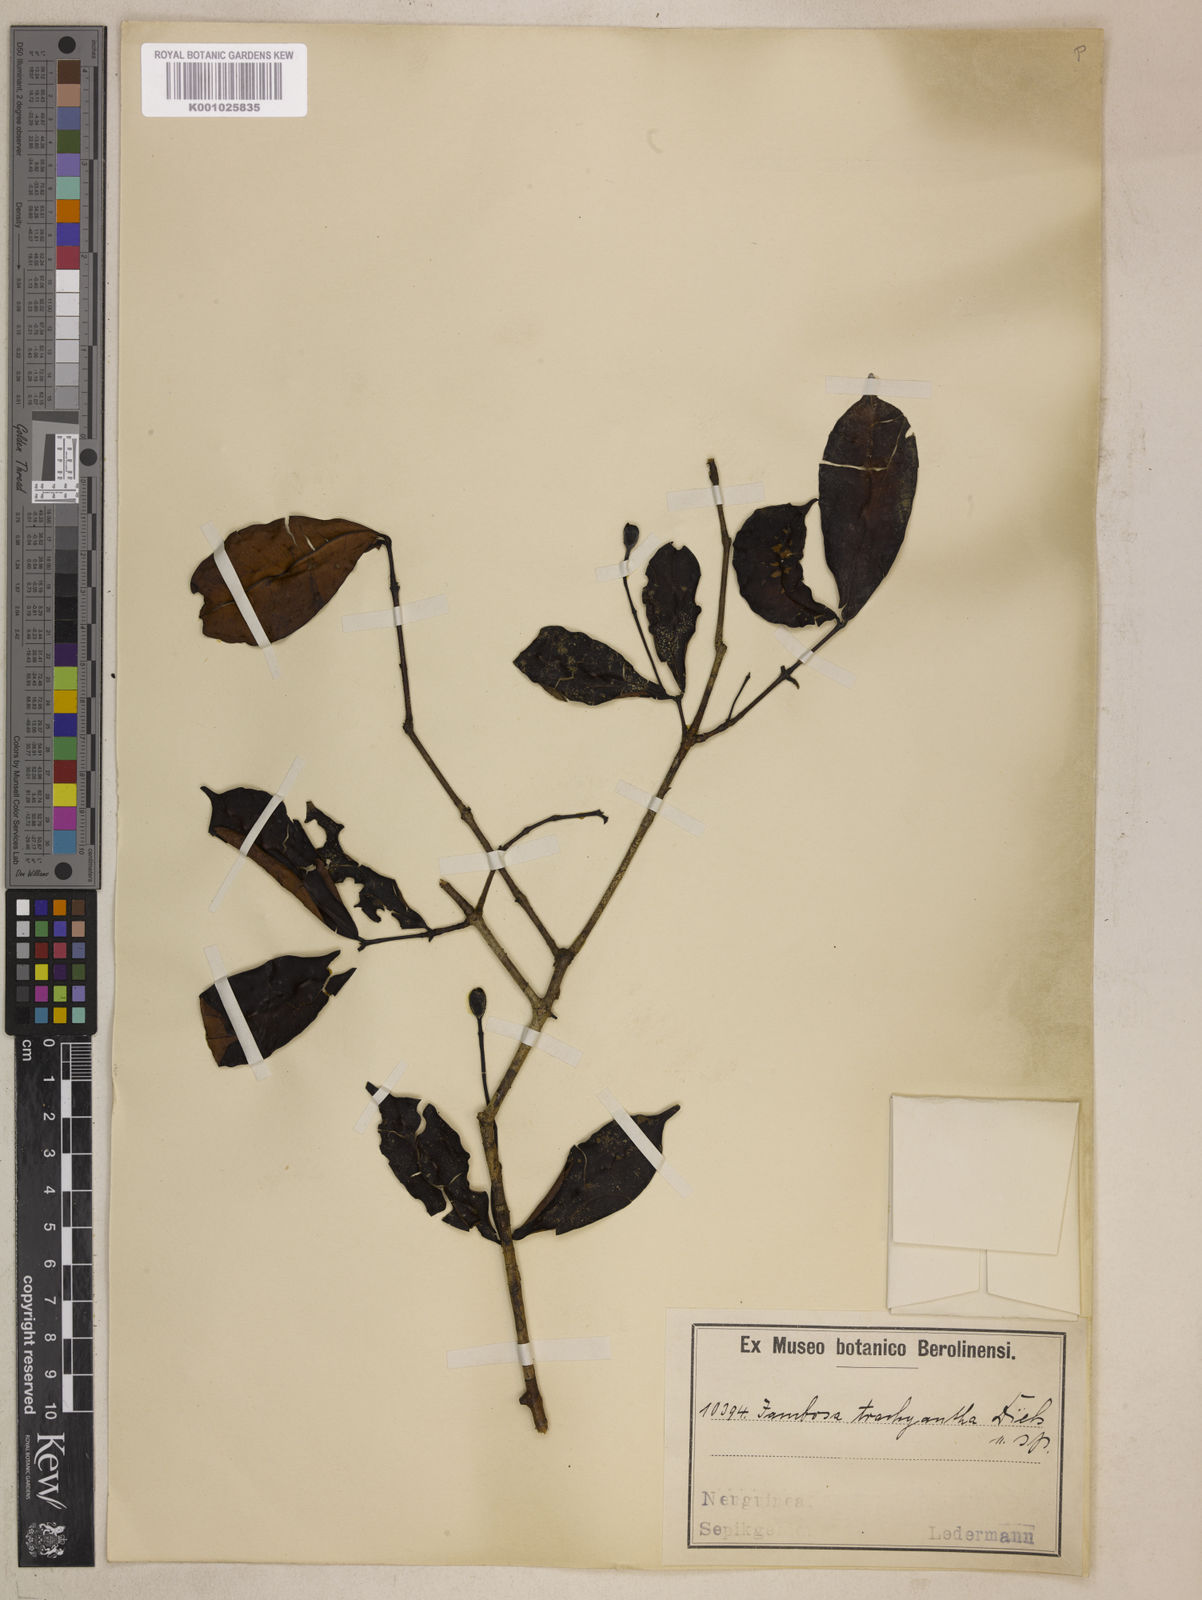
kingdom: Plantae
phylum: Tracheophyta
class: Magnoliopsida
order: Myrtales
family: Myrtaceae
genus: Syzygium
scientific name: Syzygium trachyanthum
